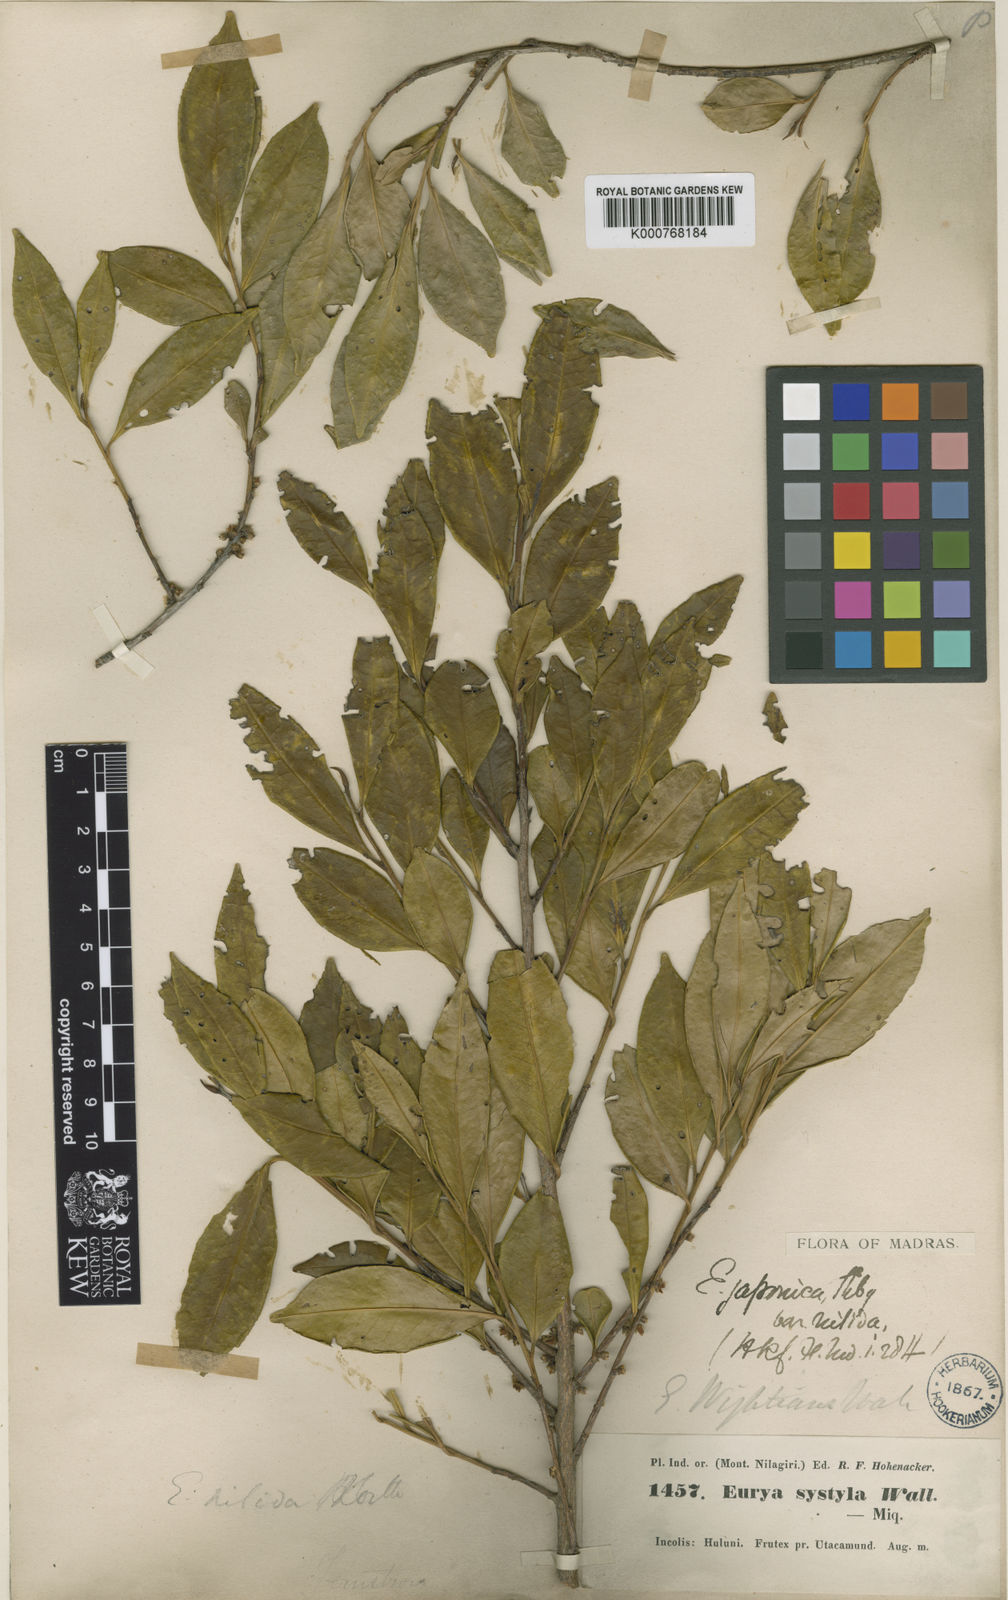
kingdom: Plantae
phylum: Tracheophyta
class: Magnoliopsida
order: Ericales
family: Pentaphylacaceae
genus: Eurya
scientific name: Eurya nitida
